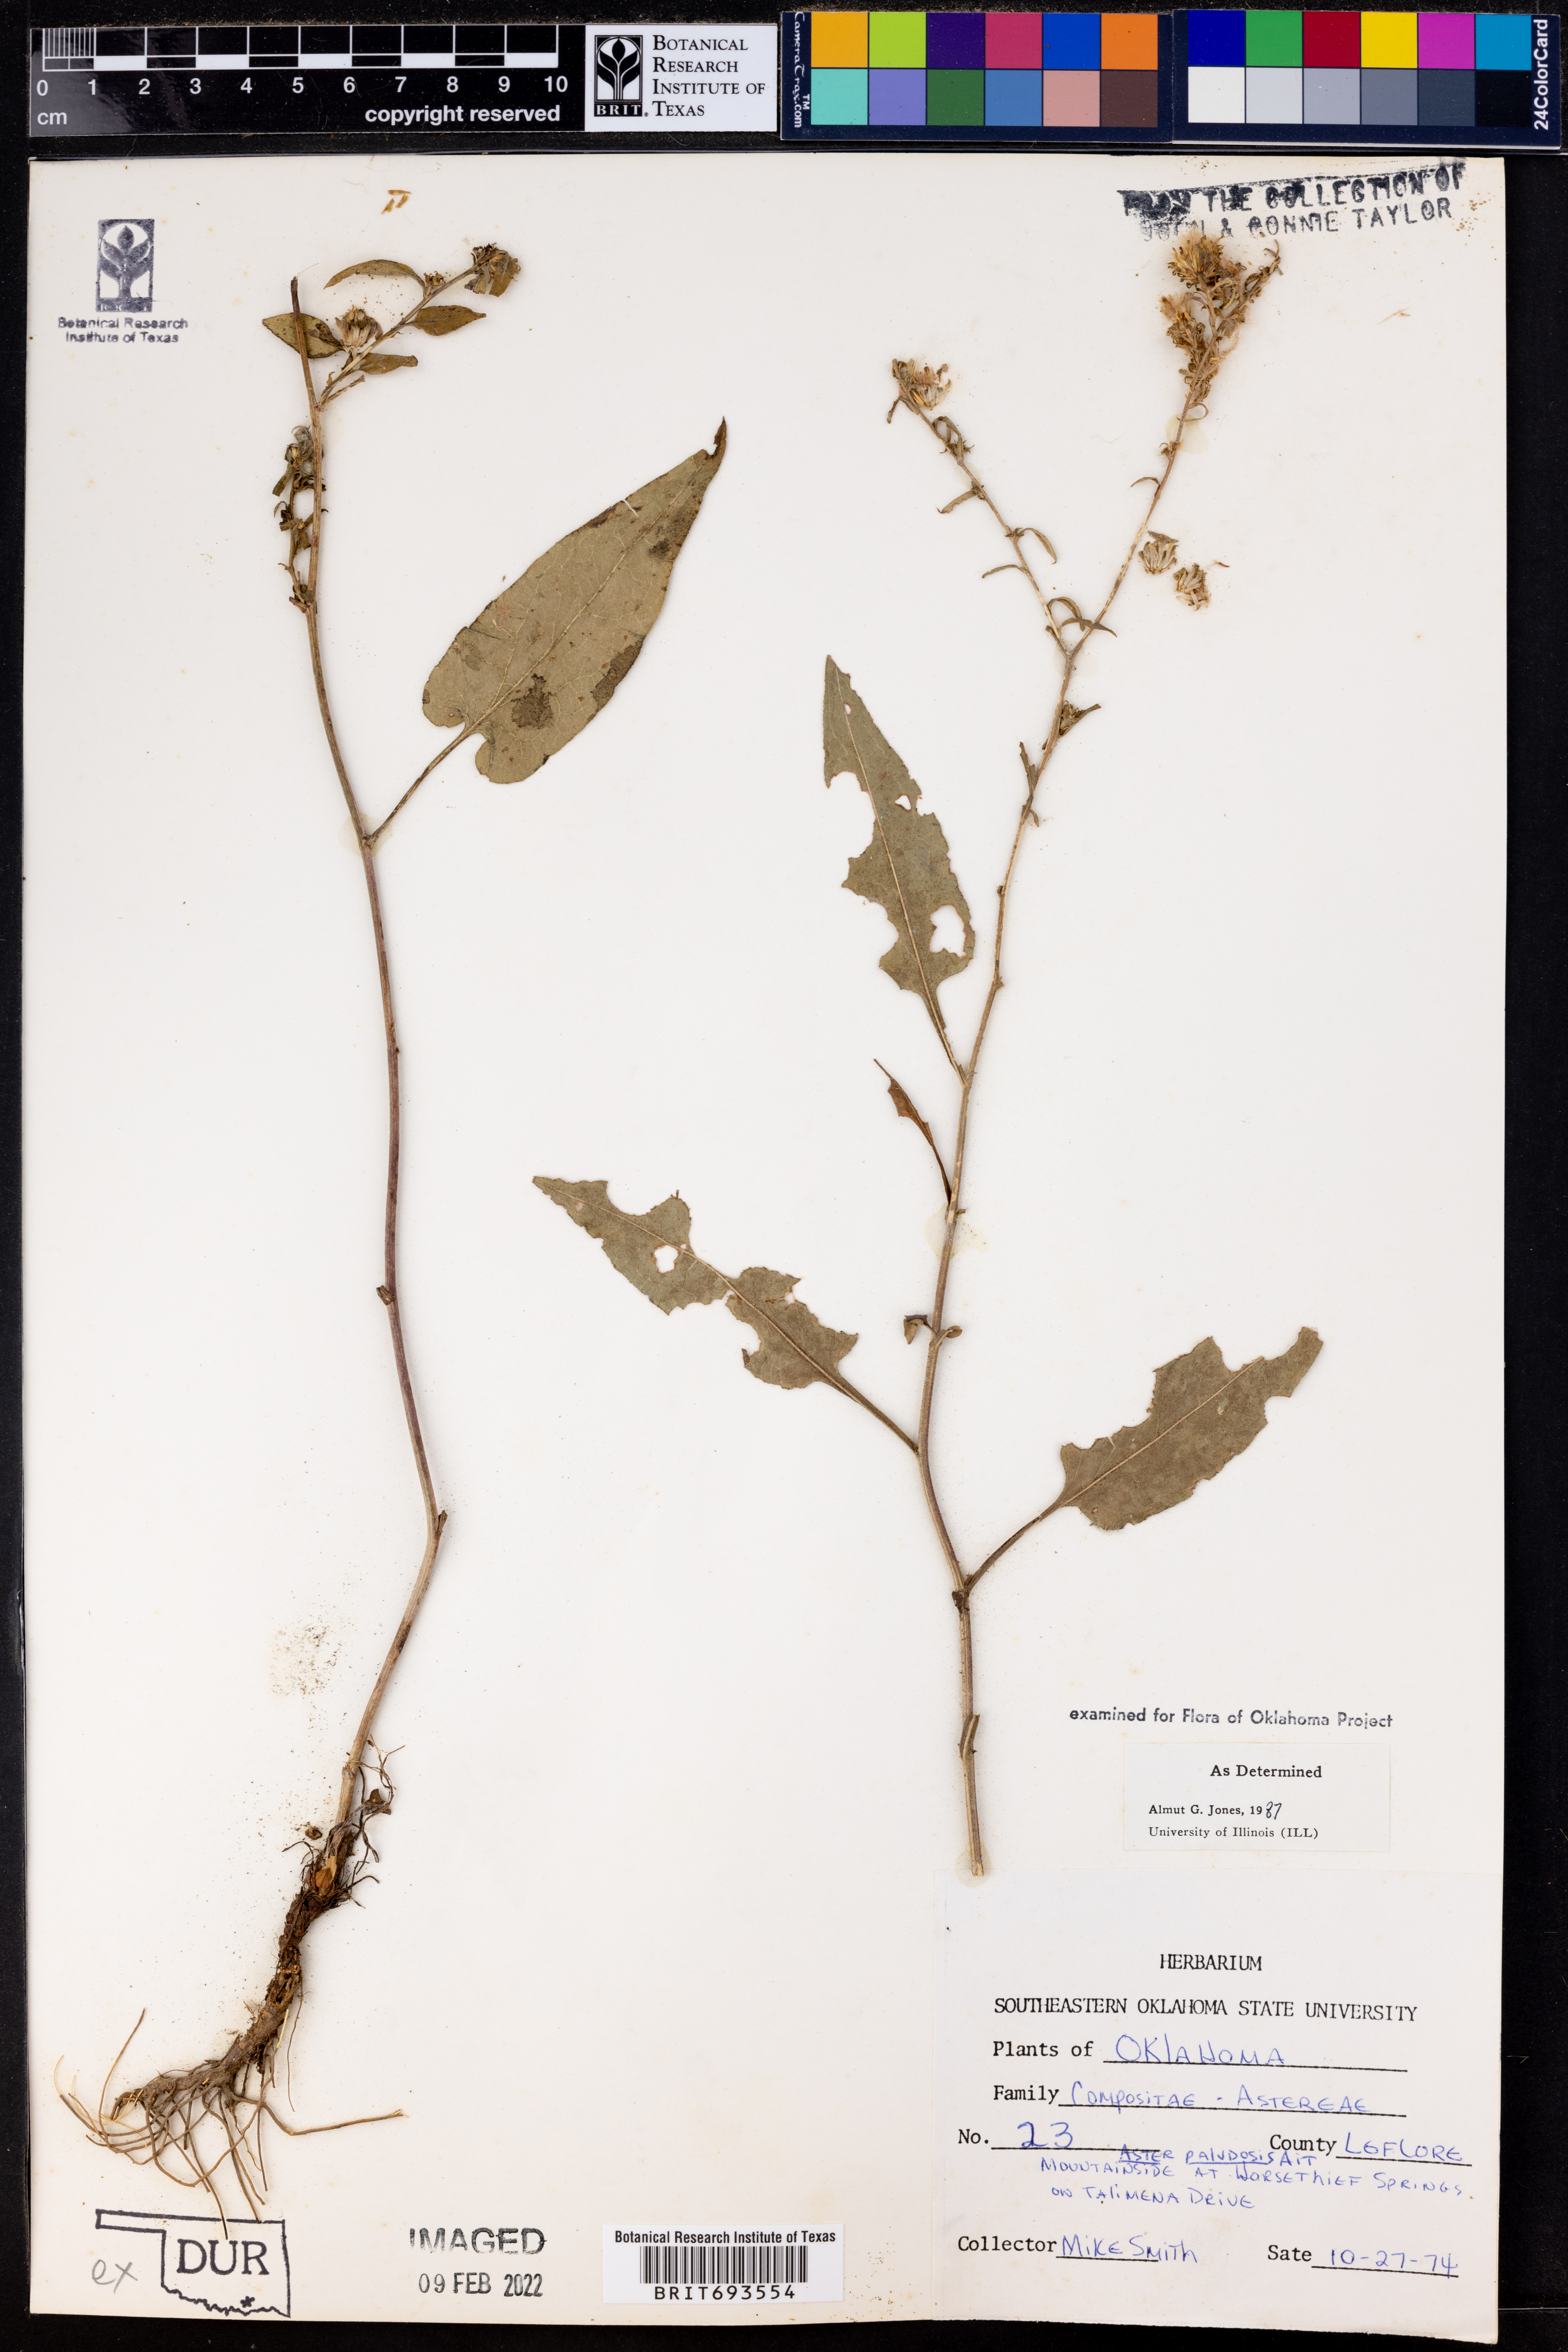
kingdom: Plantae
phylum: Tracheophyta
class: Magnoliopsida
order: Asterales
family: Asteraceae
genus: Aster
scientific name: Aster paludosus
